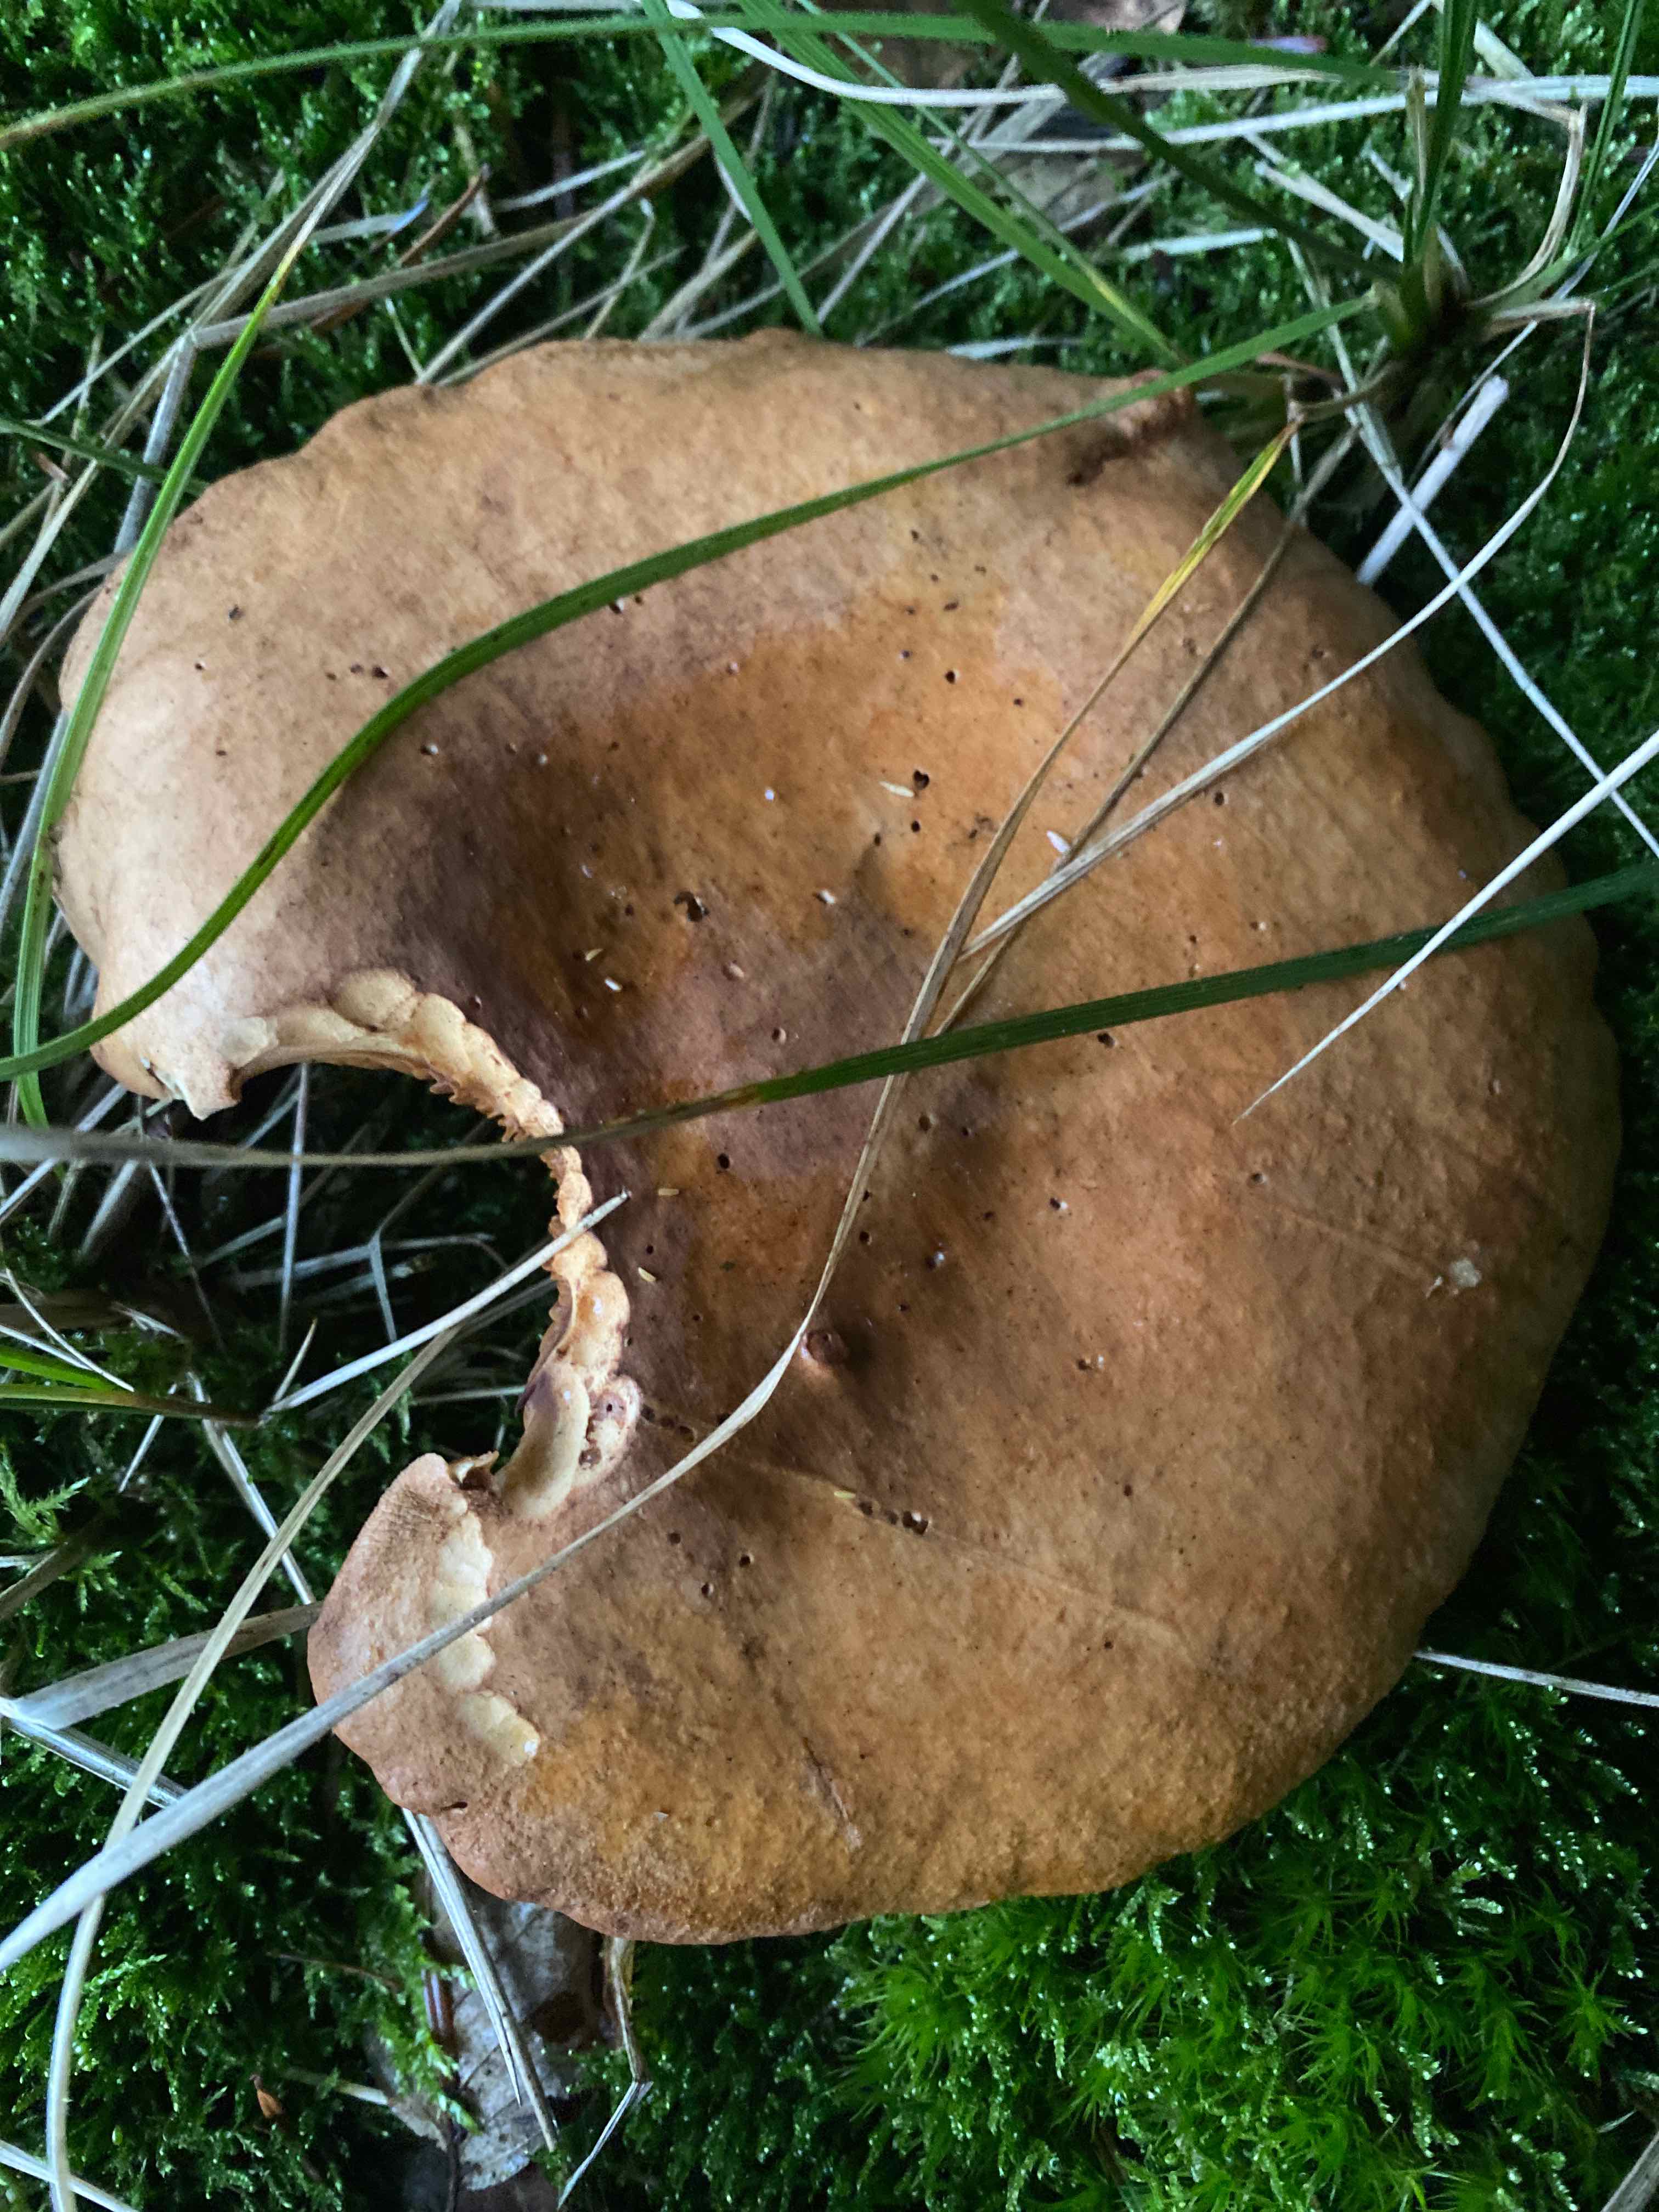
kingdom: Fungi
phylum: Basidiomycota
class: Agaricomycetes
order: Boletales
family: Paxillaceae
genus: Paxillus
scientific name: Paxillus involutus
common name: almindelig netbladhat
